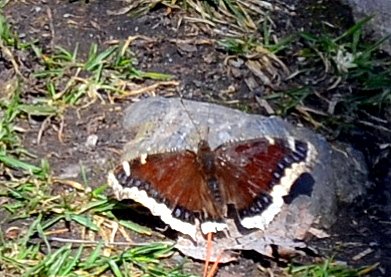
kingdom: Animalia
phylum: Arthropoda
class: Insecta
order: Lepidoptera
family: Nymphalidae
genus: Nymphalis
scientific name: Nymphalis antiopa
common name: Mourning Cloak
